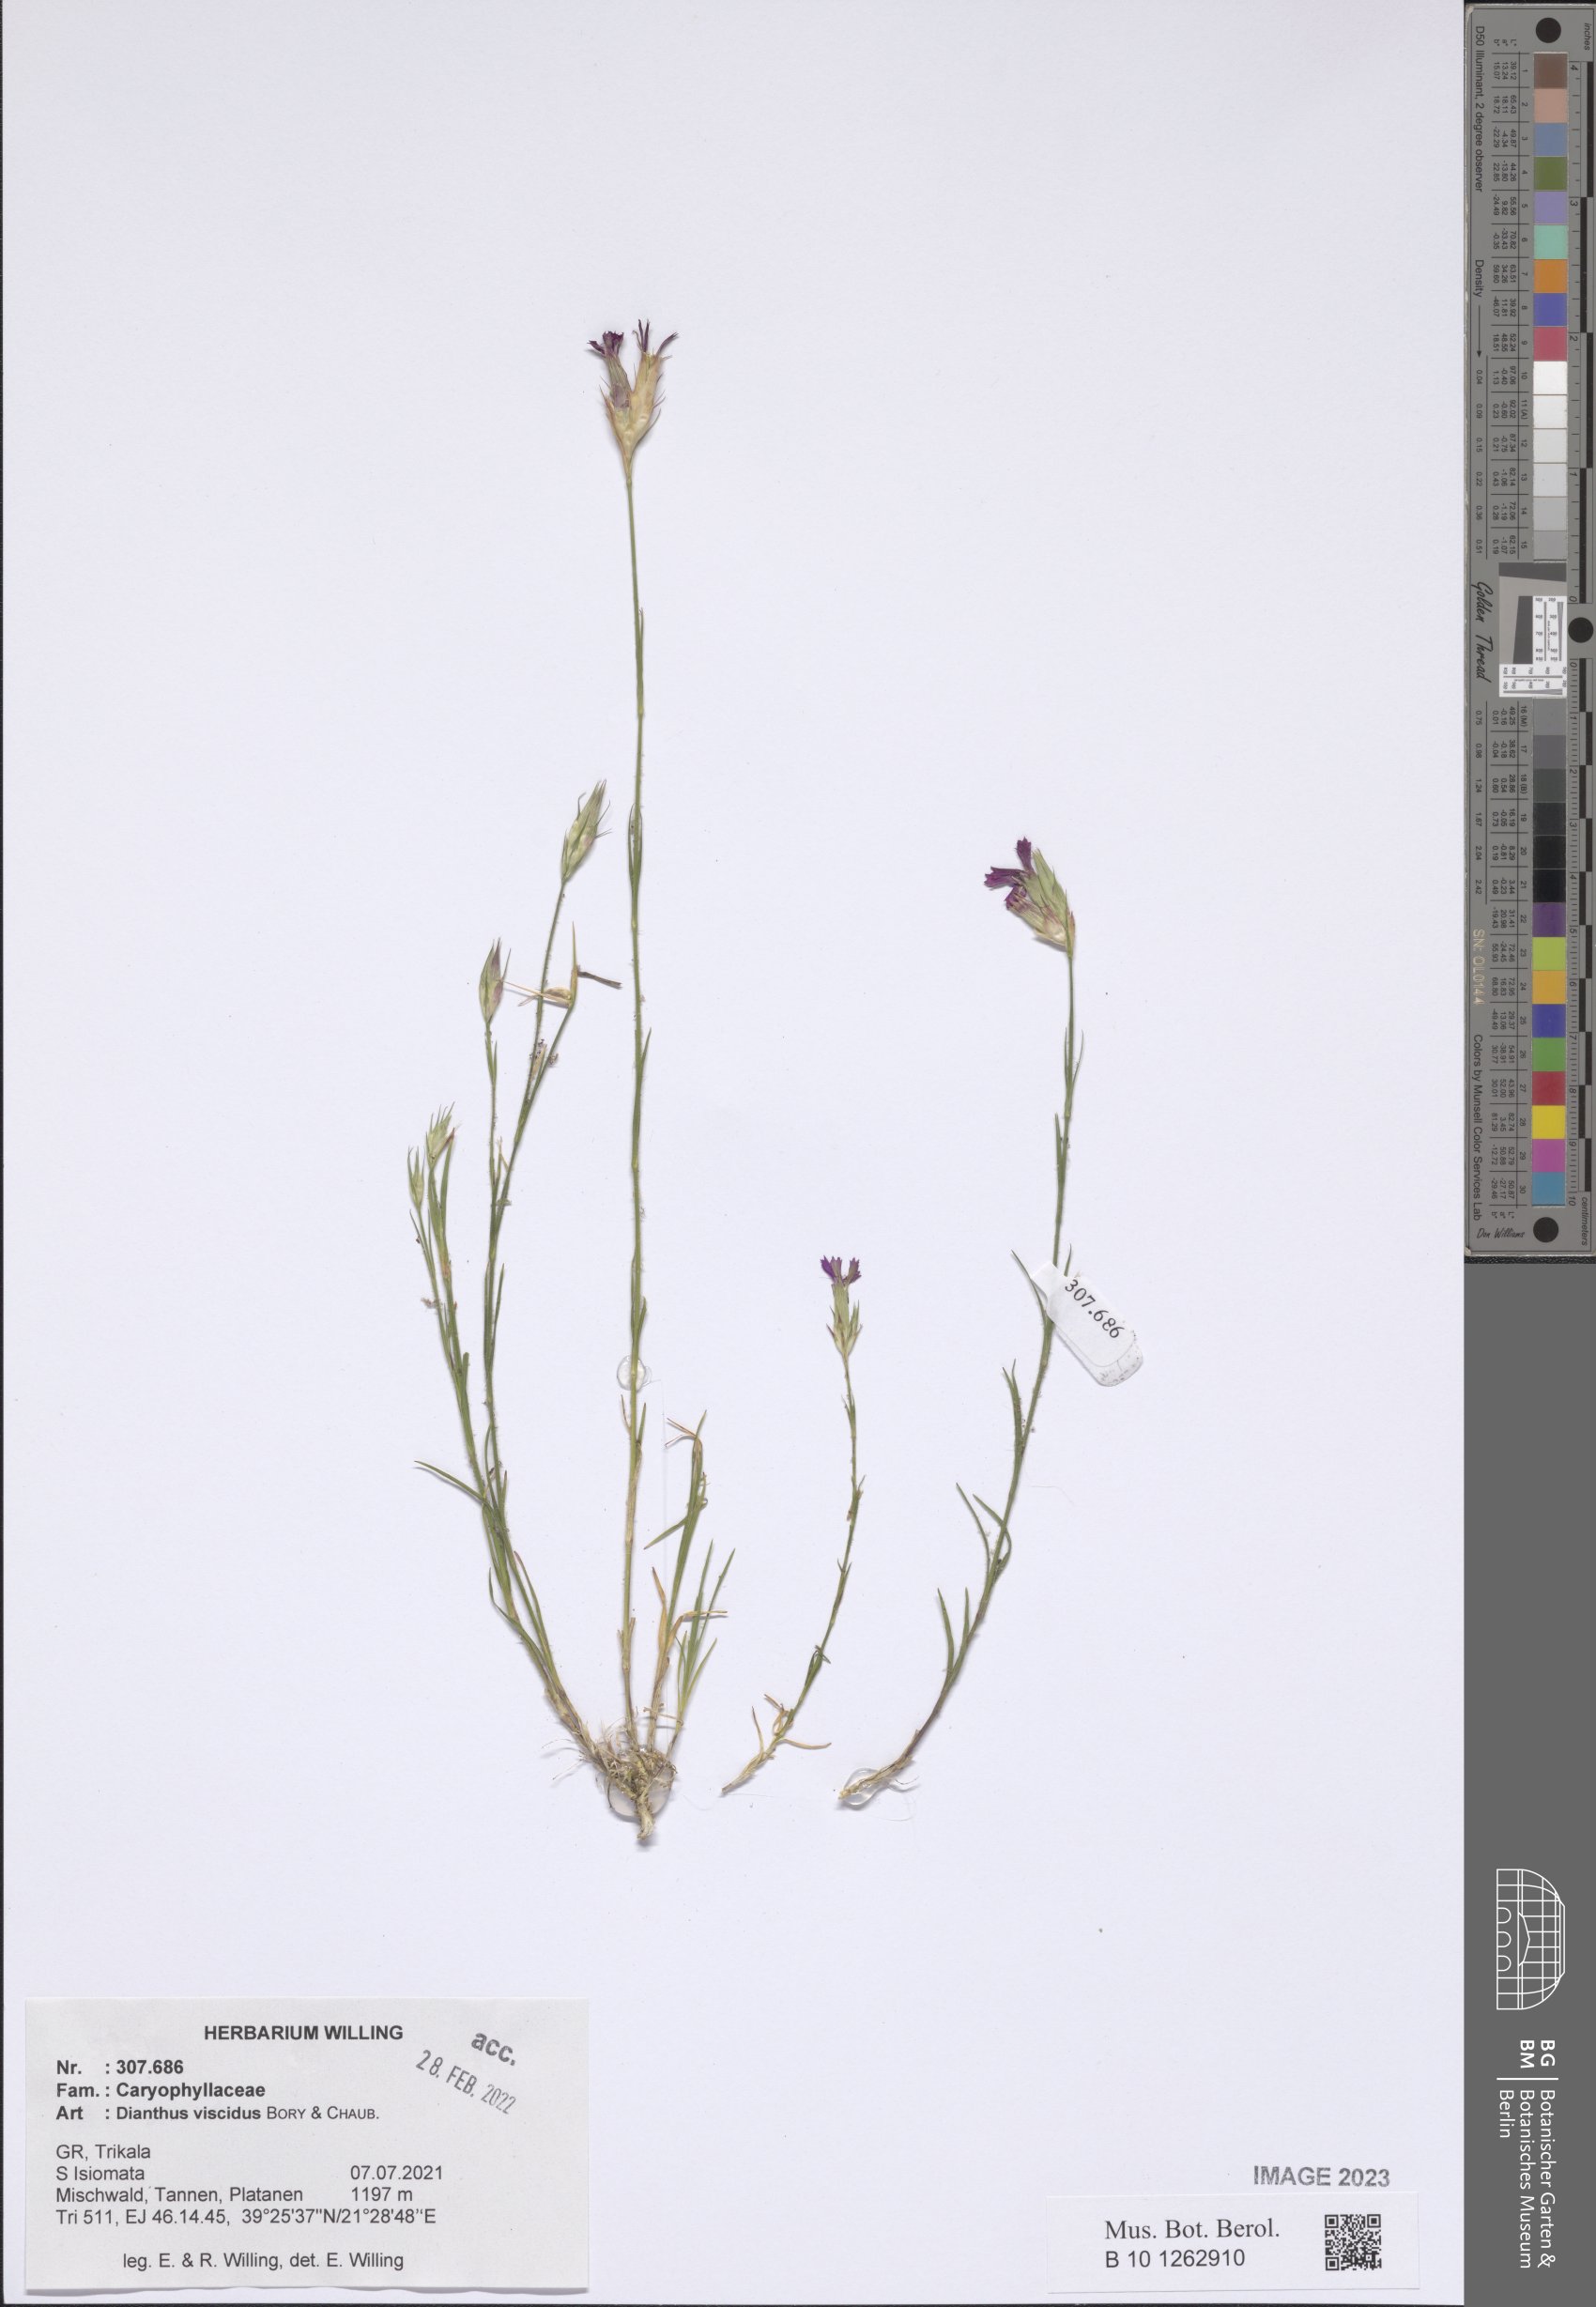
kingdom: Plantae
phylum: Tracheophyta
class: Magnoliopsida
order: Caryophyllales
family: Caryophyllaceae
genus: Dianthus
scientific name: Dianthus viscidus
